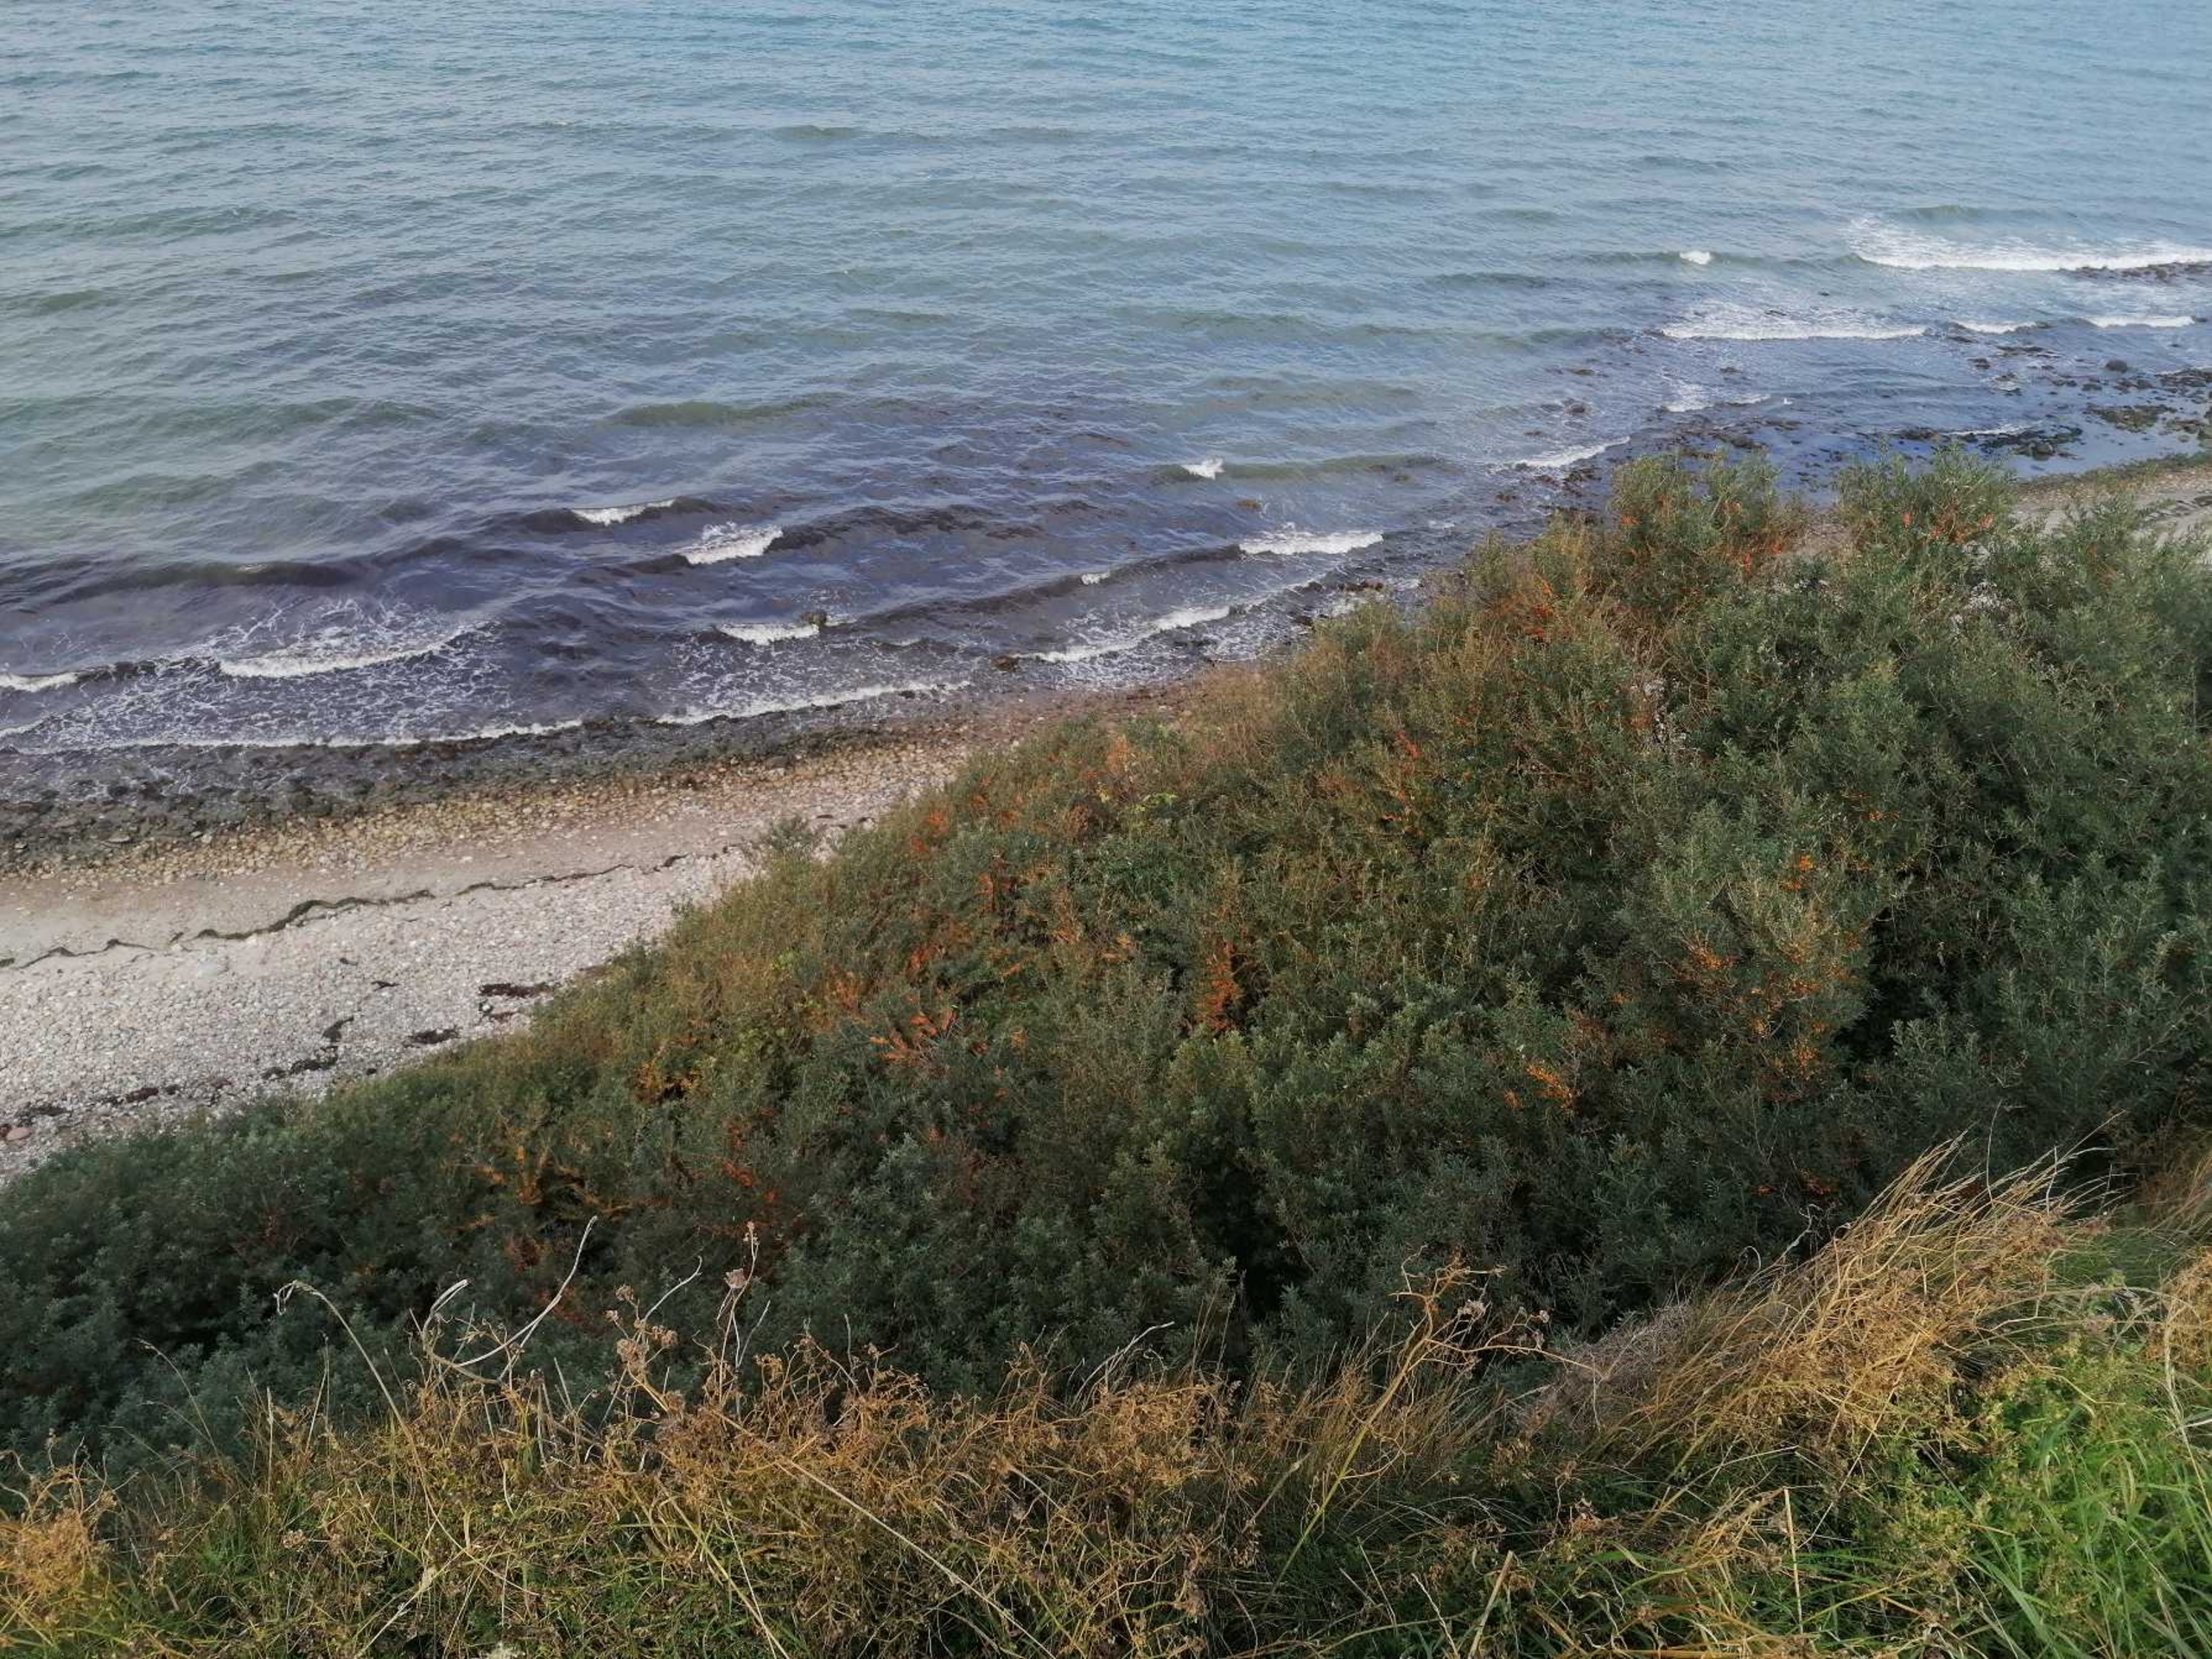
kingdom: Plantae
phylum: Tracheophyta
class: Magnoliopsida
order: Rosales
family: Elaeagnaceae
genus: Hippophae
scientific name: Hippophae rhamnoides
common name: Havtorn
